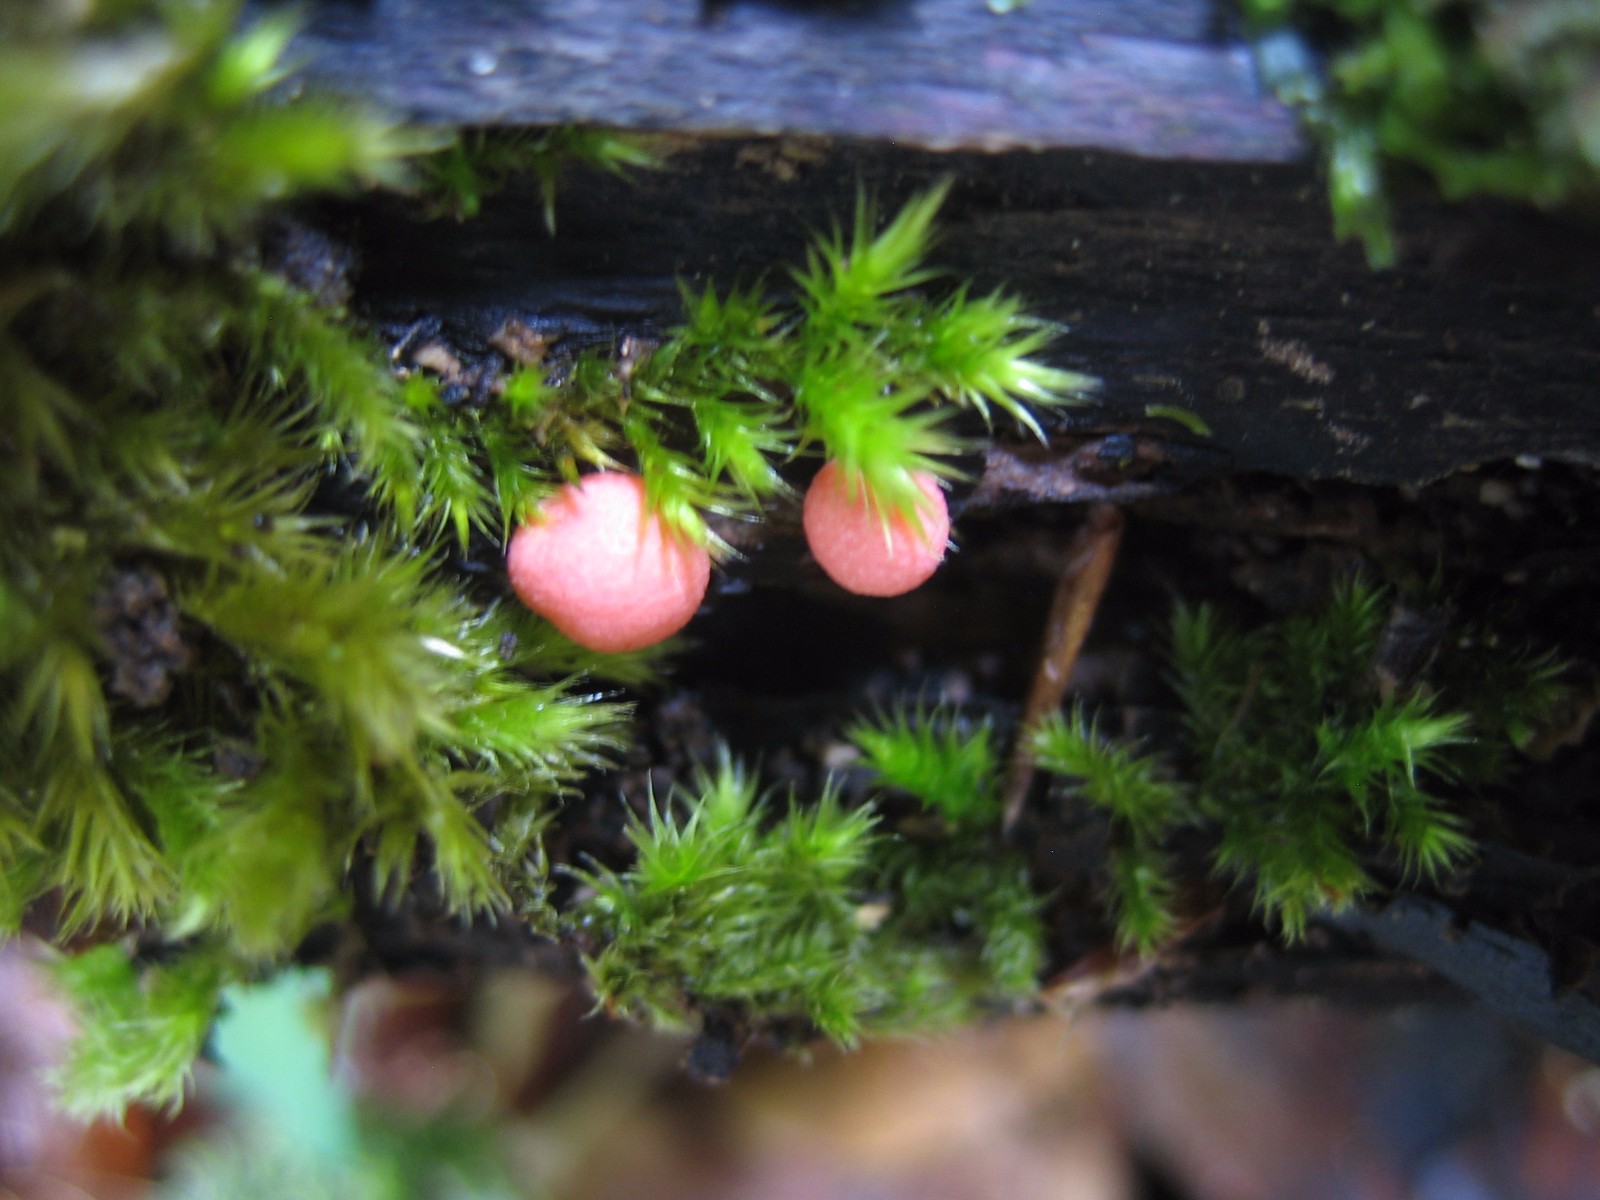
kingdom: Protozoa
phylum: Mycetozoa
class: Myxomycetes
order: Cribrariales
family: Tubiferaceae
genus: Lycogala
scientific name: Lycogala epidendrum
